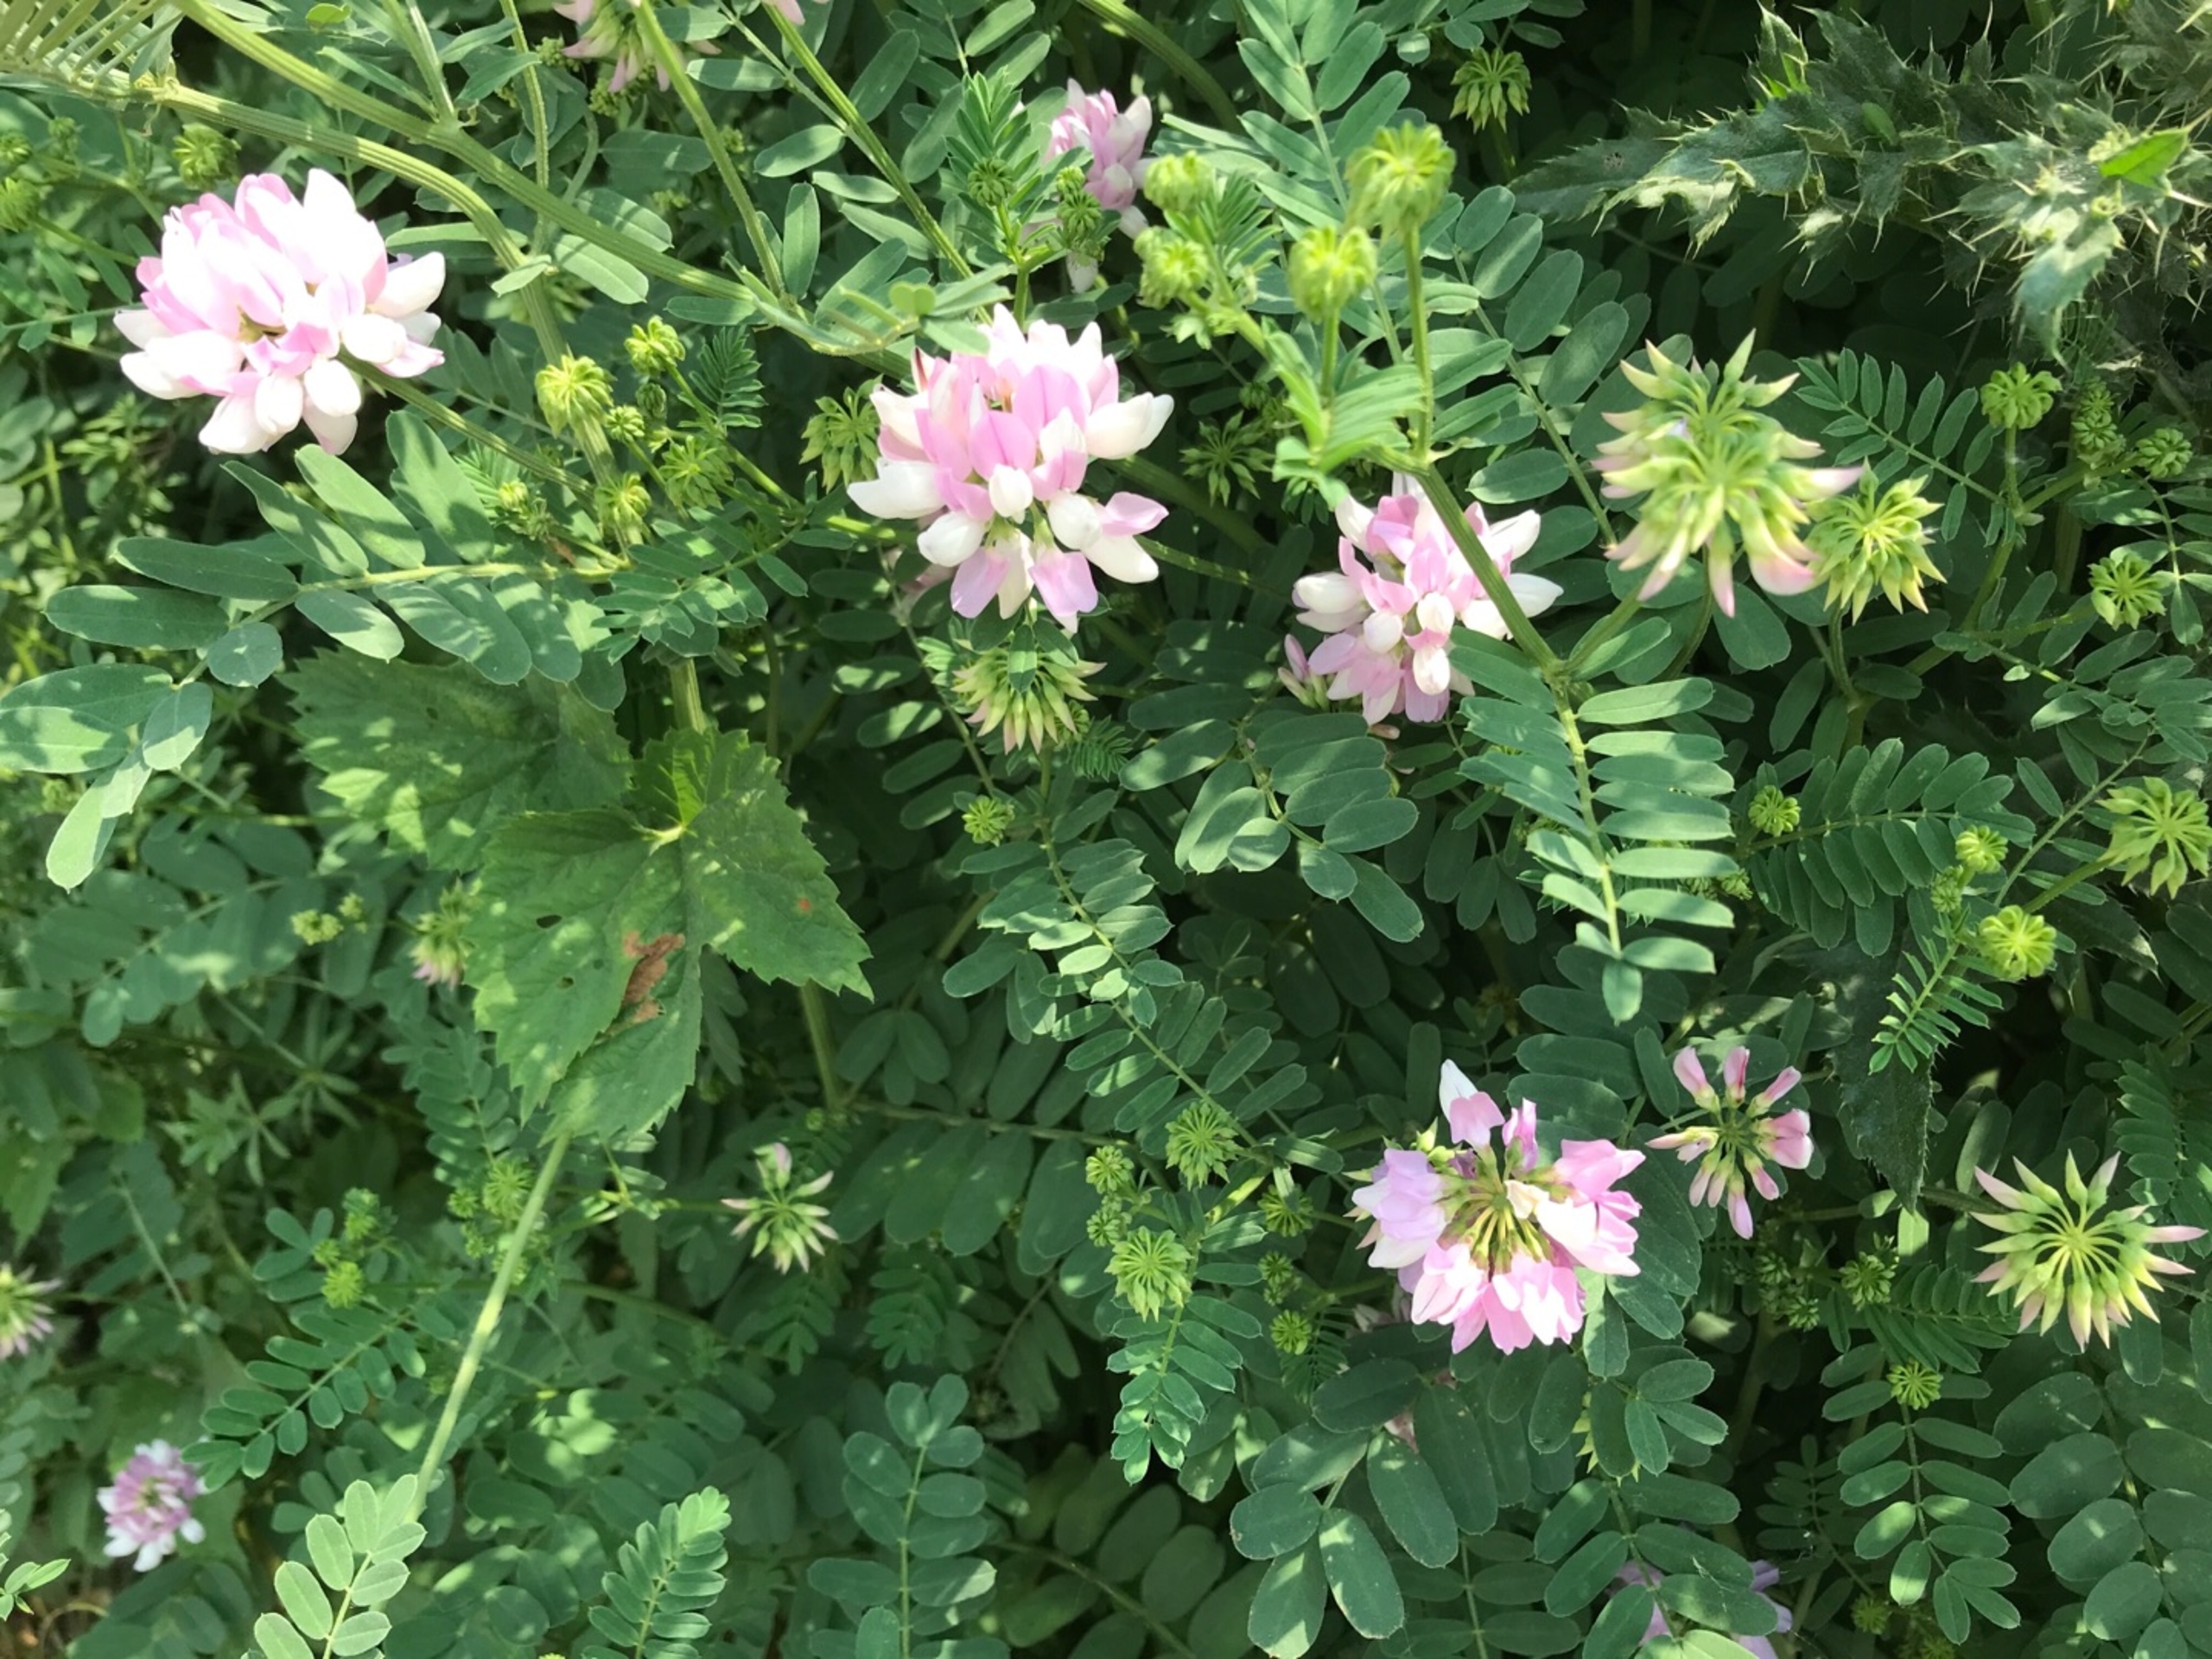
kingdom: Plantae
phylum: Tracheophyta
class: Magnoliopsida
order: Fabales
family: Fabaceae
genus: Coronilla
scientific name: Coronilla varia
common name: Giftig kronvikke
